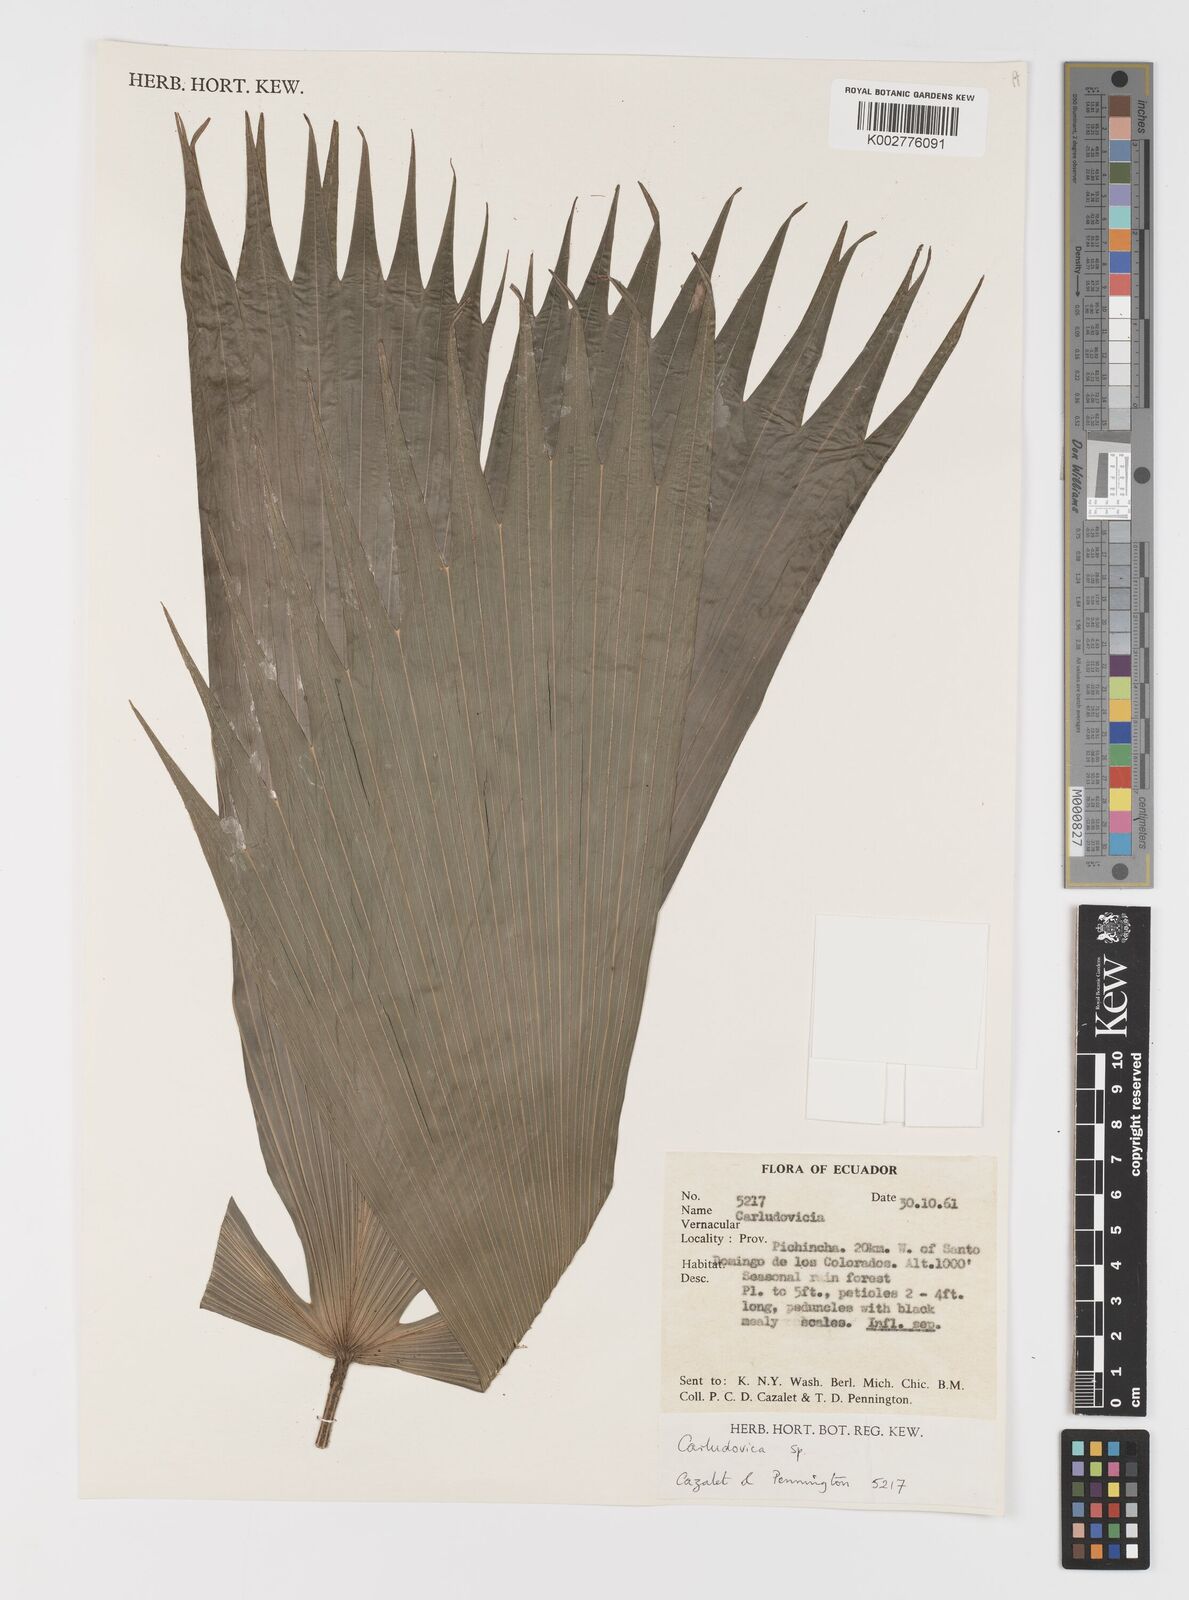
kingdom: Plantae
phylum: Tracheophyta
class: Liliopsida
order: Pandanales
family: Cyclanthaceae
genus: Carludovica
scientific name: Carludovica
